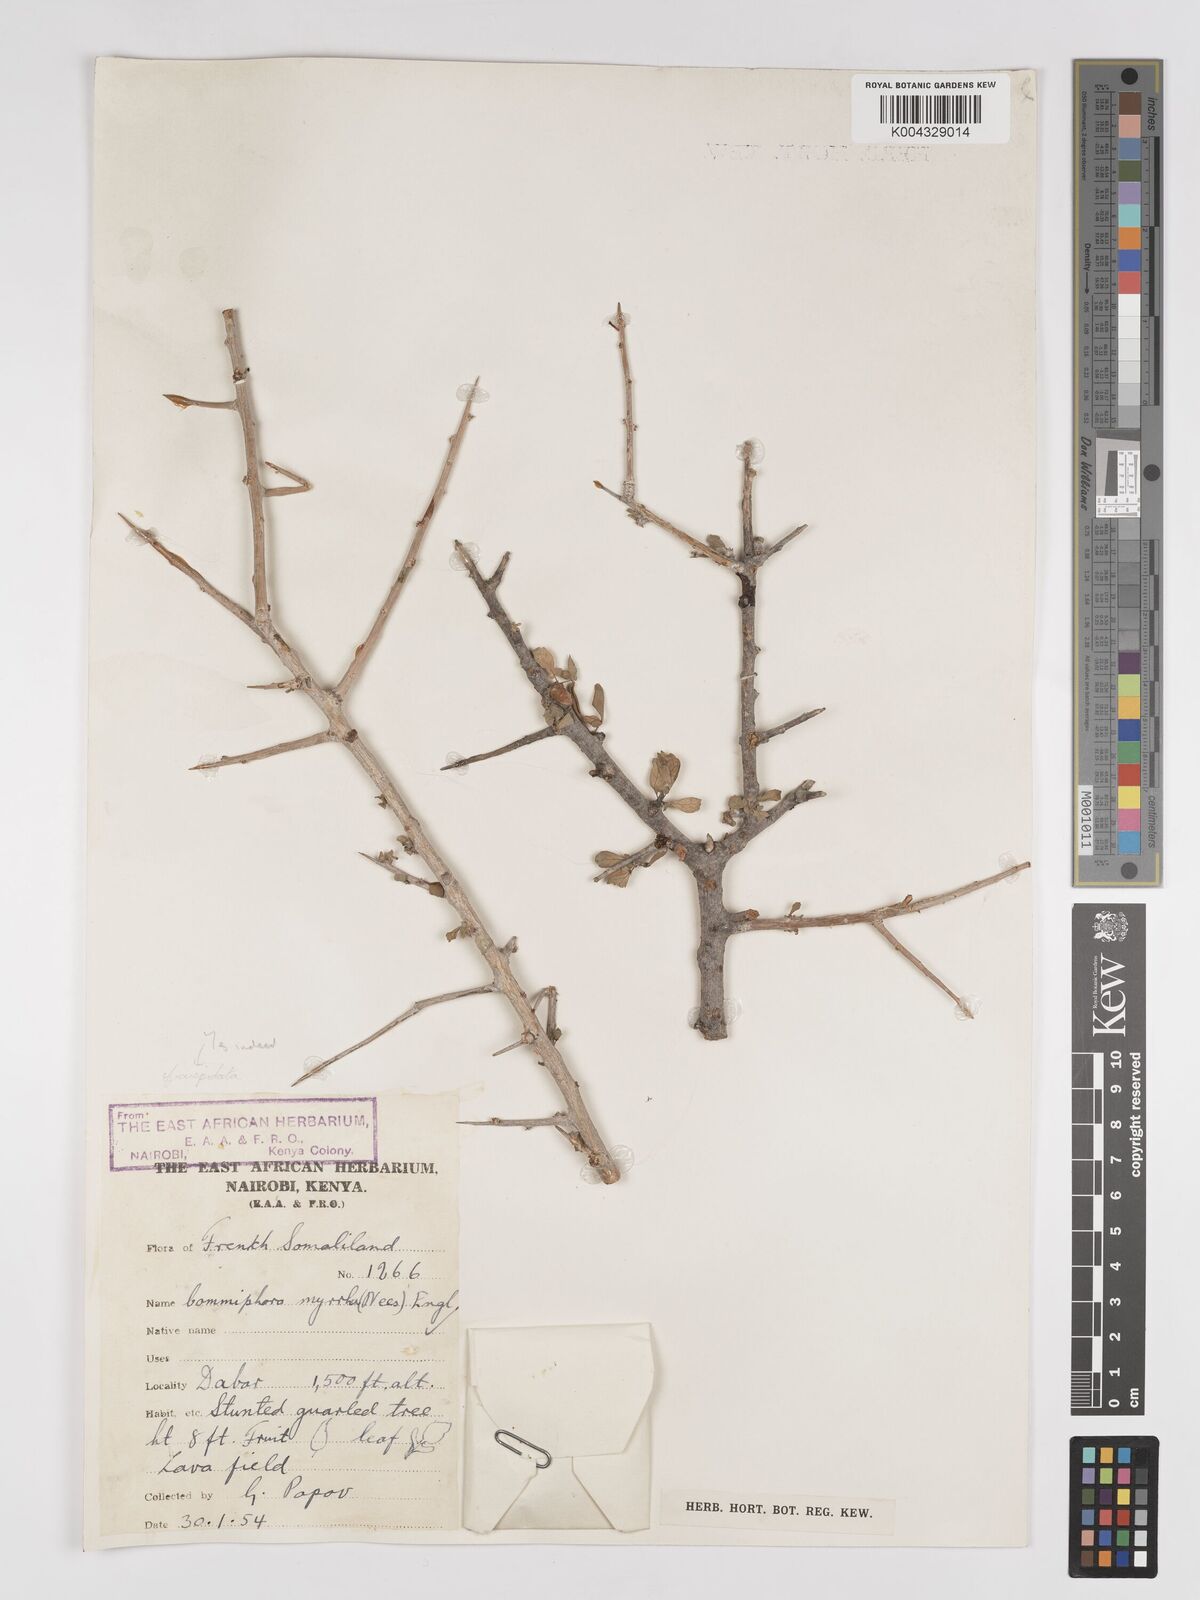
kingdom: Plantae
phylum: Tracheophyta
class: Magnoliopsida
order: Sapindales
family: Burseraceae
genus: Commiphora
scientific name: Commiphora myrrha
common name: African myrrh
